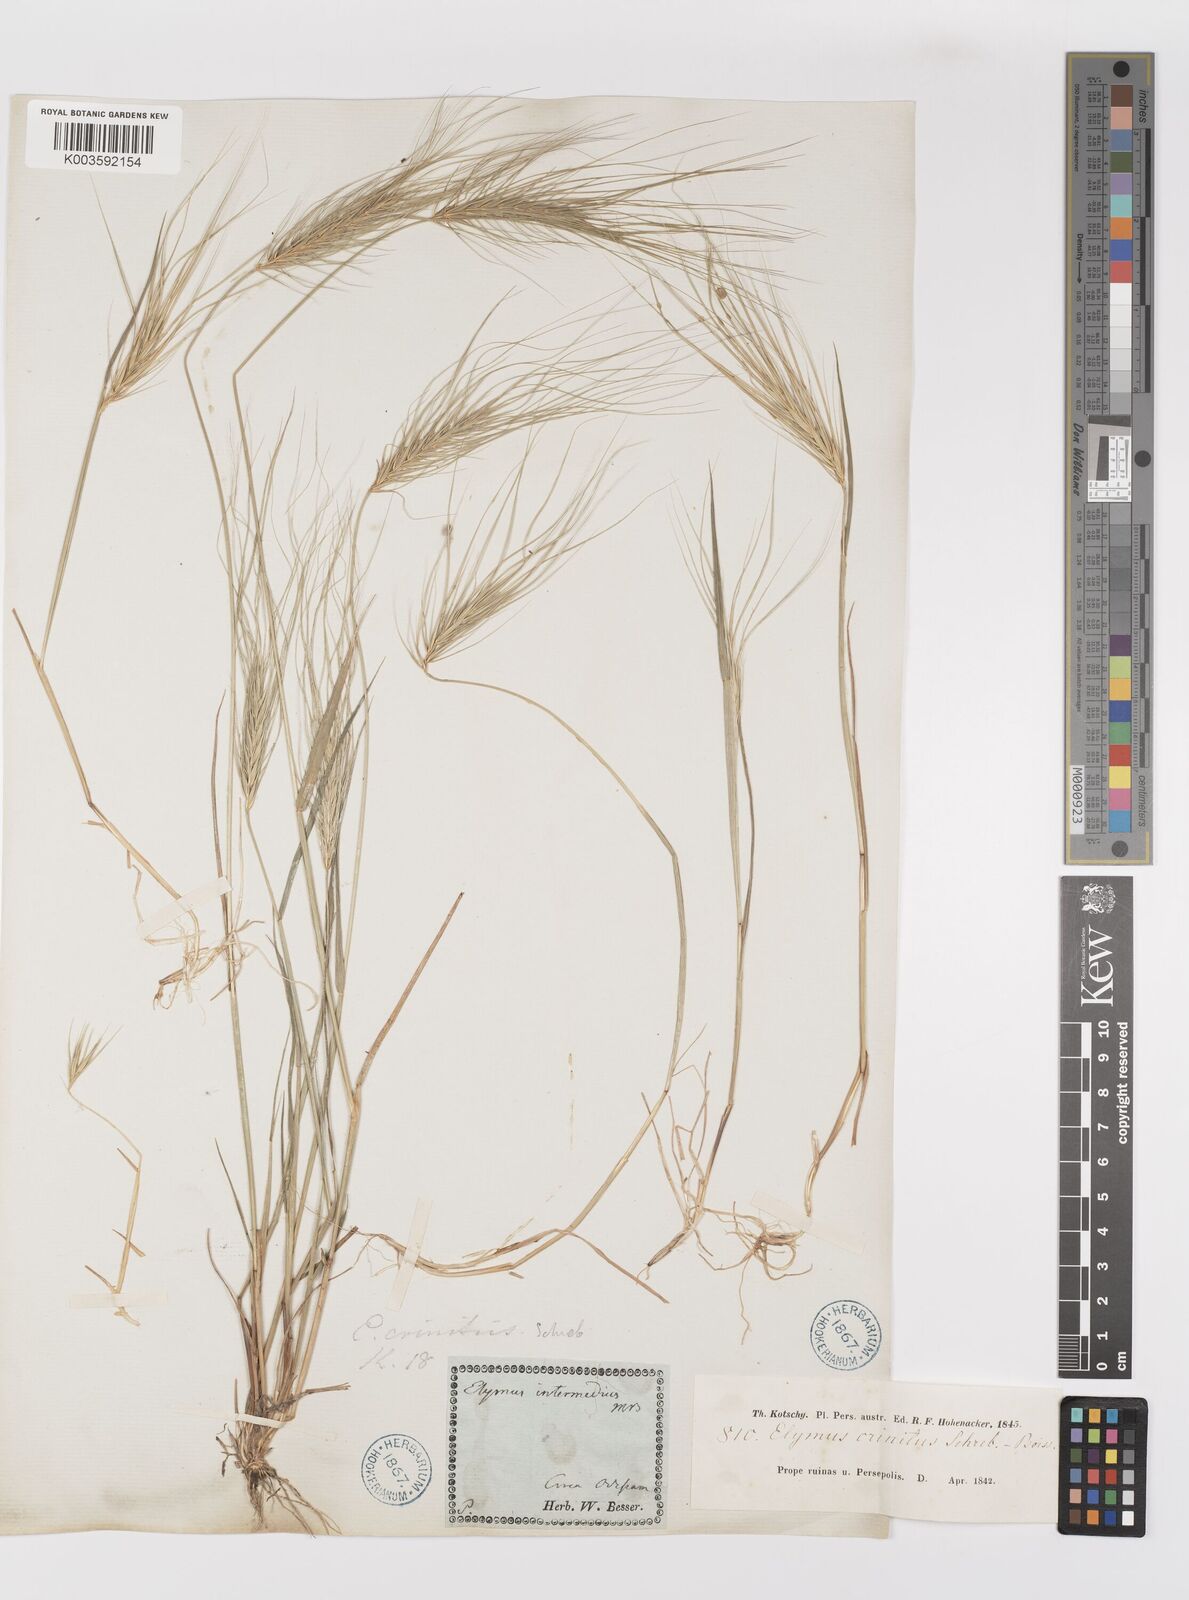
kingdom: Plantae
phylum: Tracheophyta
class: Liliopsida
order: Poales
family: Poaceae
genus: Taeniatherum
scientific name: Taeniatherum caput-medusae
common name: Medusahead
